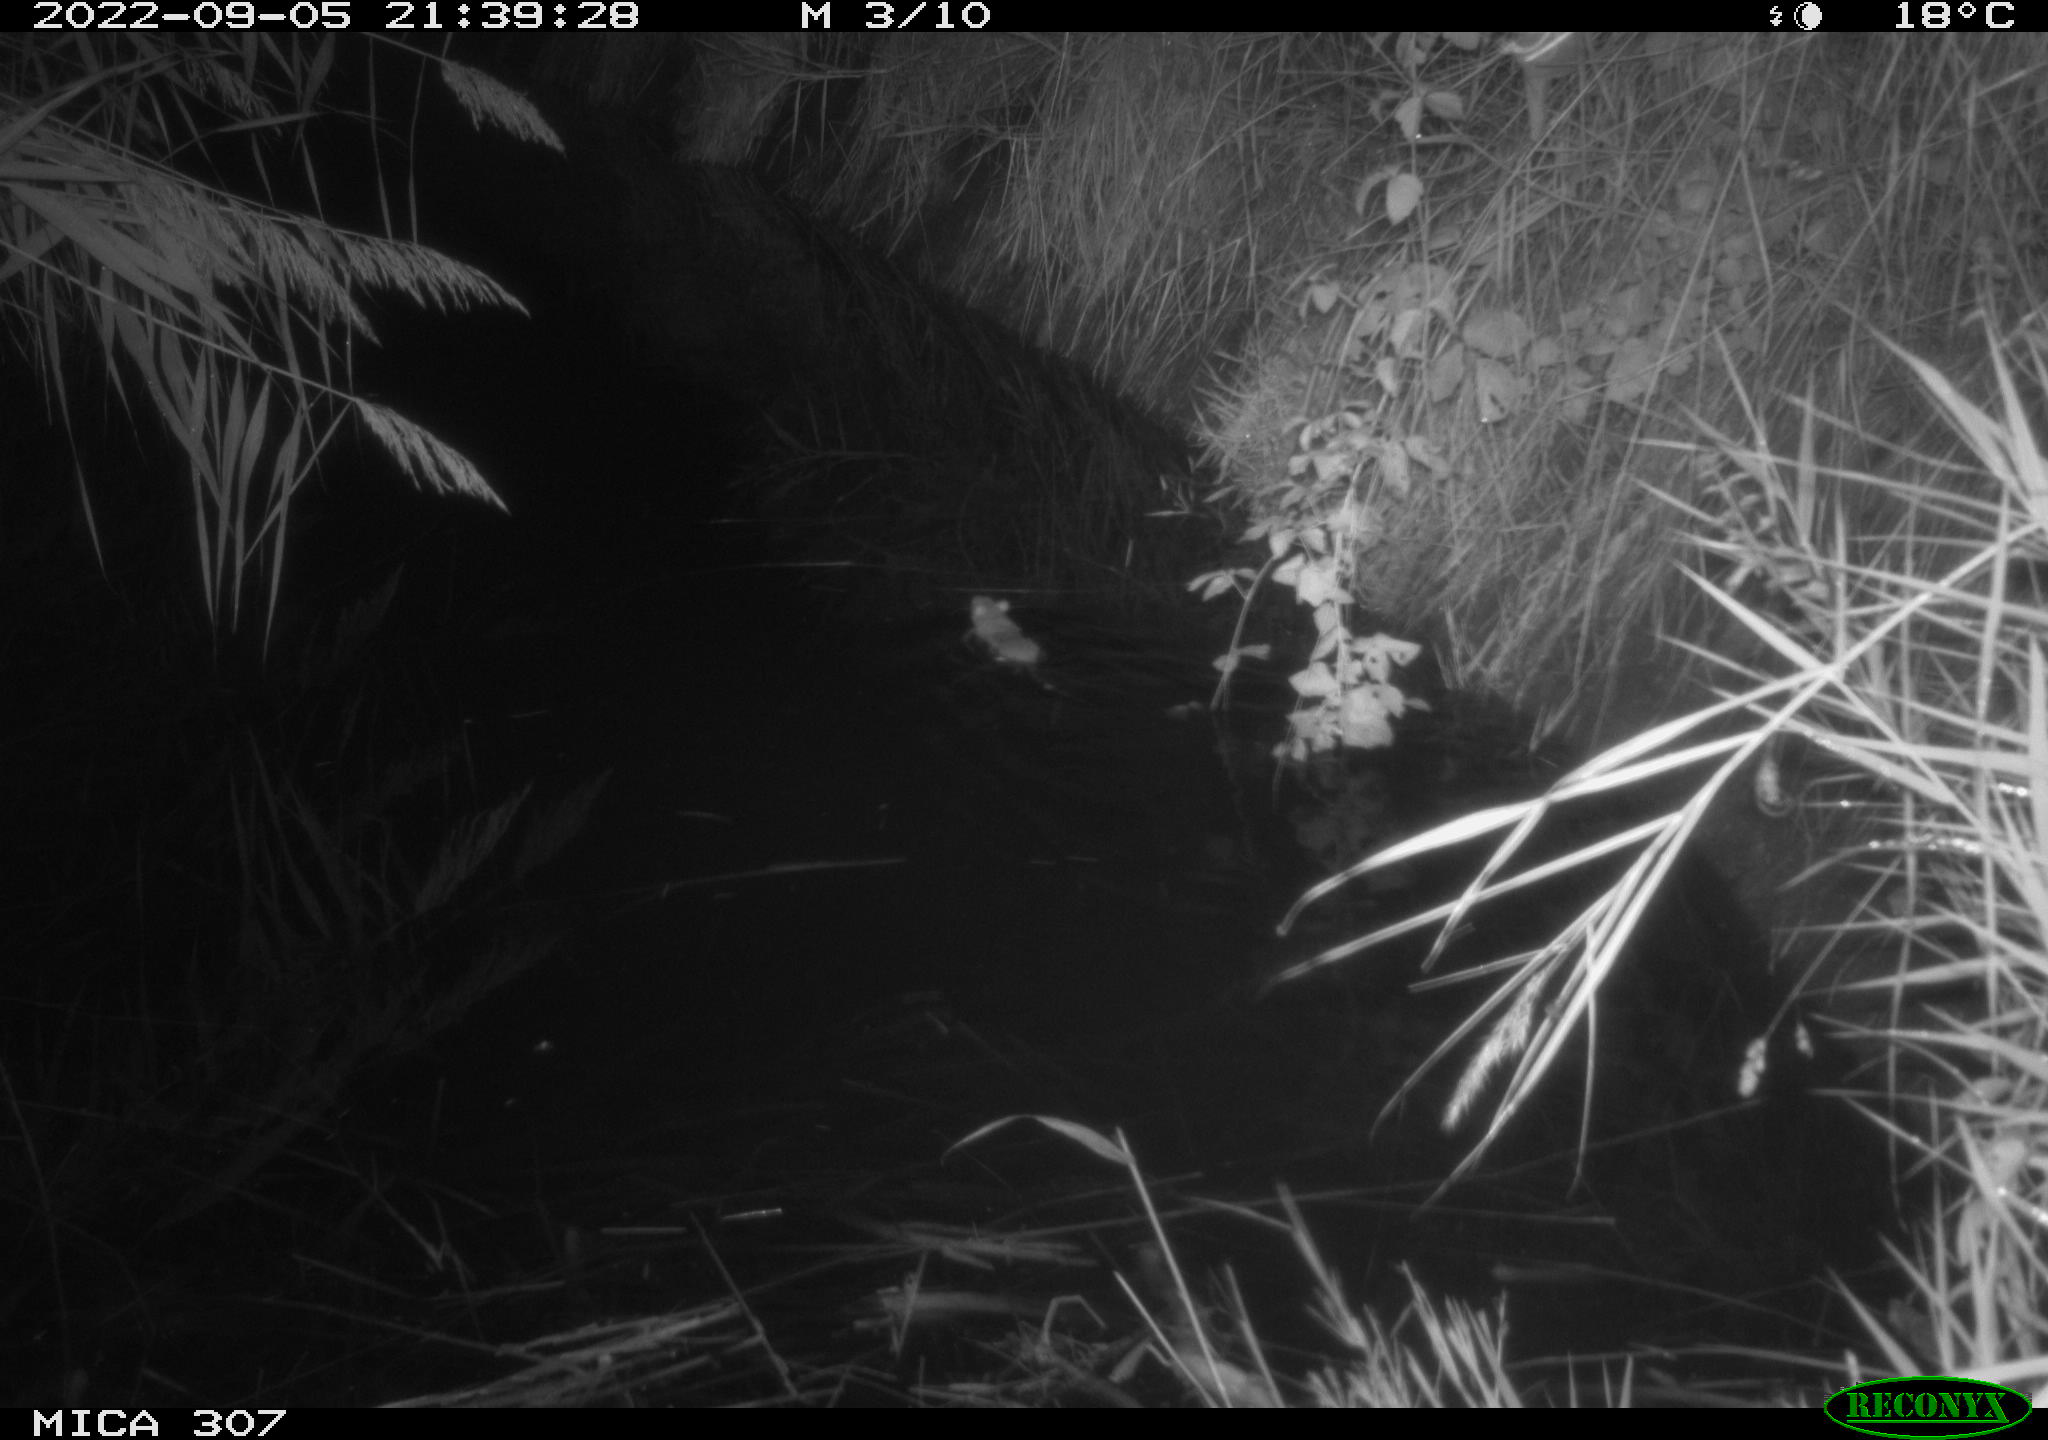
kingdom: Animalia
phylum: Chordata
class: Mammalia
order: Rodentia
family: Muridae
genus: Rattus
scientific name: Rattus norvegicus
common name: Brown rat
